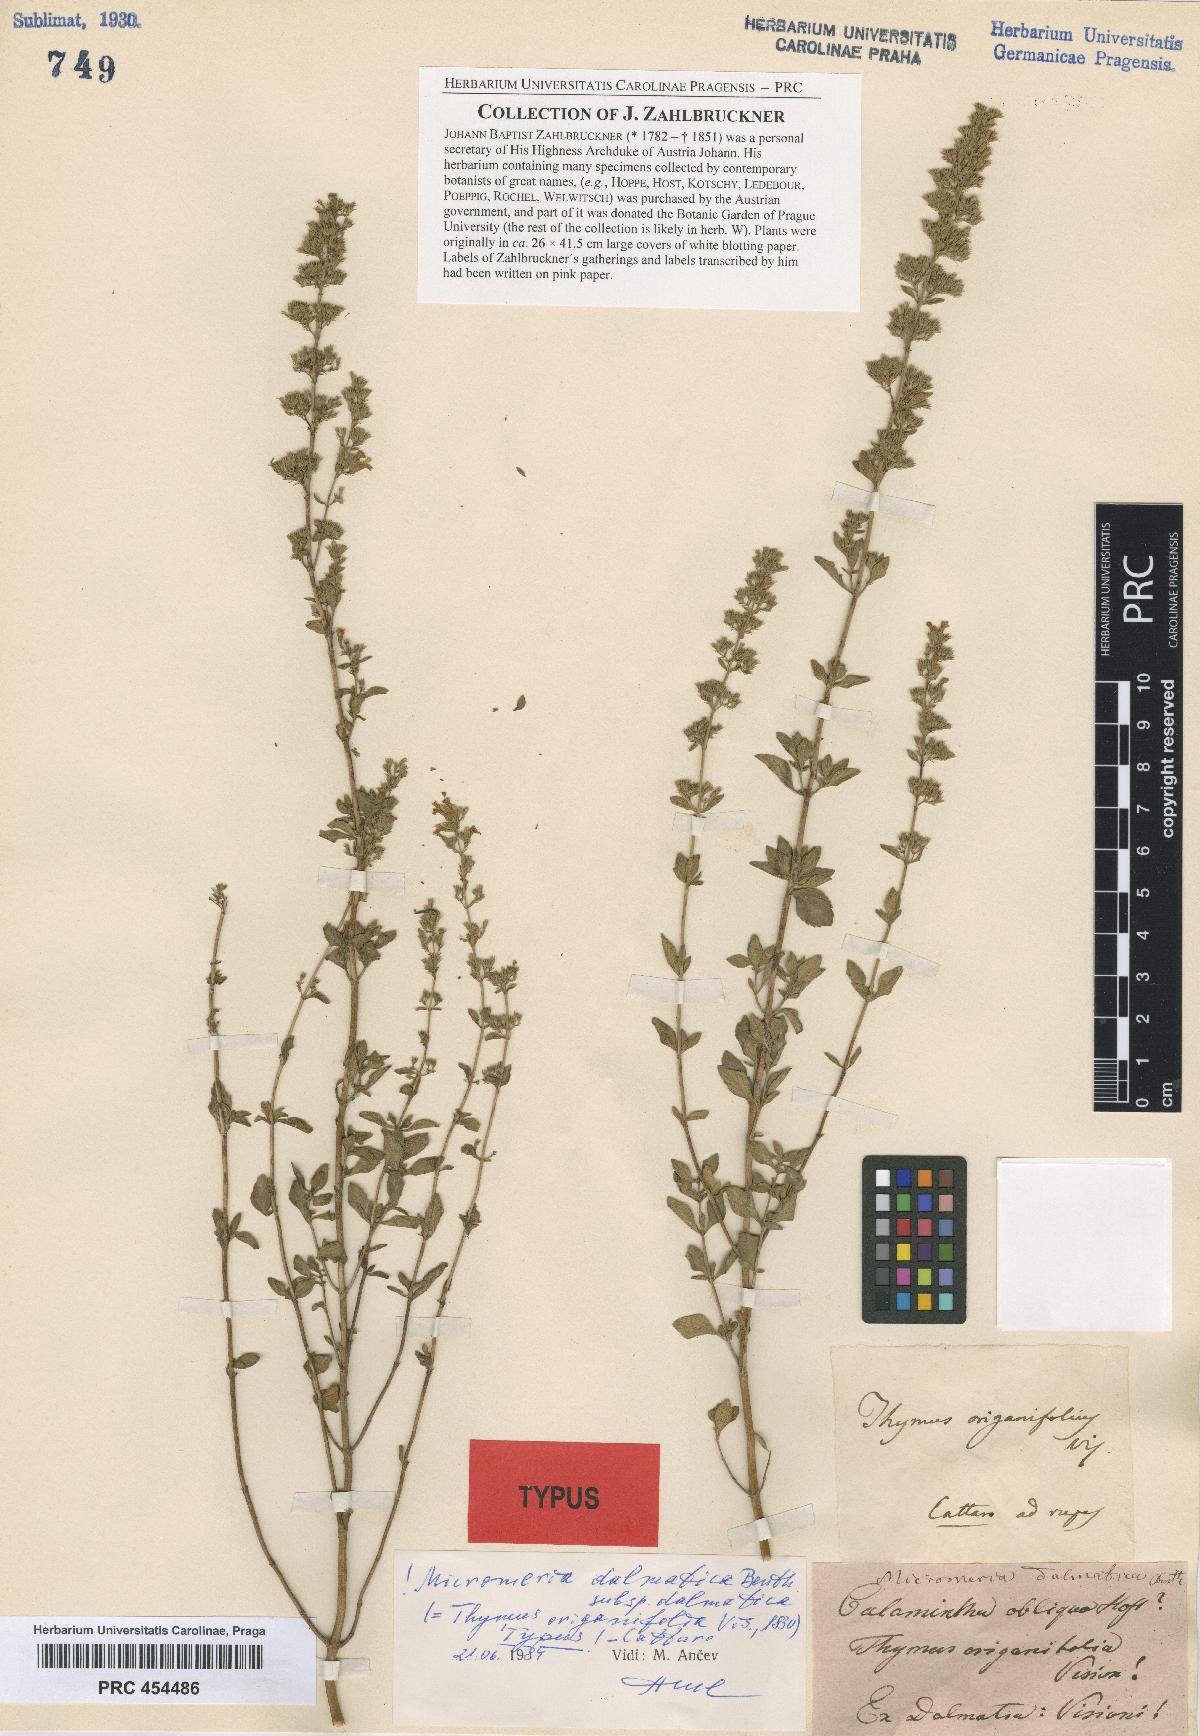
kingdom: Plantae
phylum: Tracheophyta
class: Magnoliopsida
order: Lamiales
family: Lamiaceae
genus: Clinopodium
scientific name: Clinopodium dalmaticum
